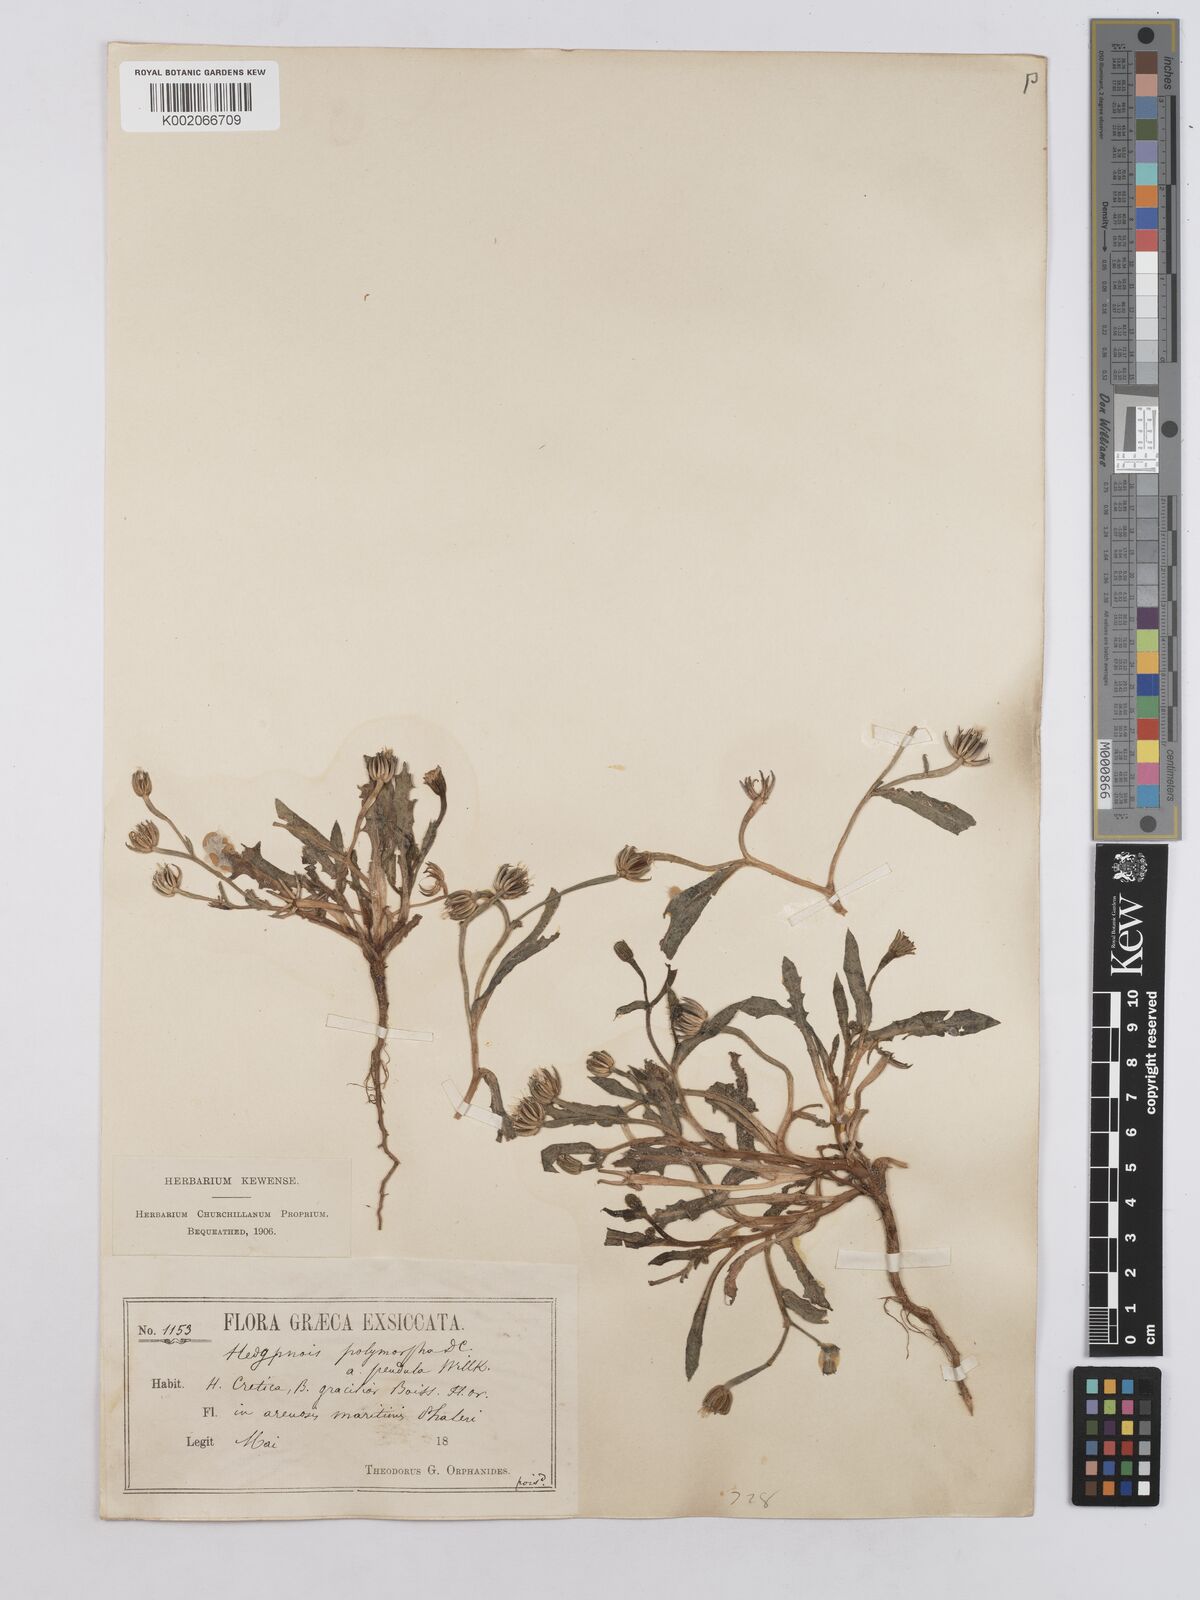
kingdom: Plantae
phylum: Tracheophyta
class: Magnoliopsida
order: Asterales
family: Asteraceae
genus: Hedypnois
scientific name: Hedypnois rhagadioloides
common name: Cretan weed
